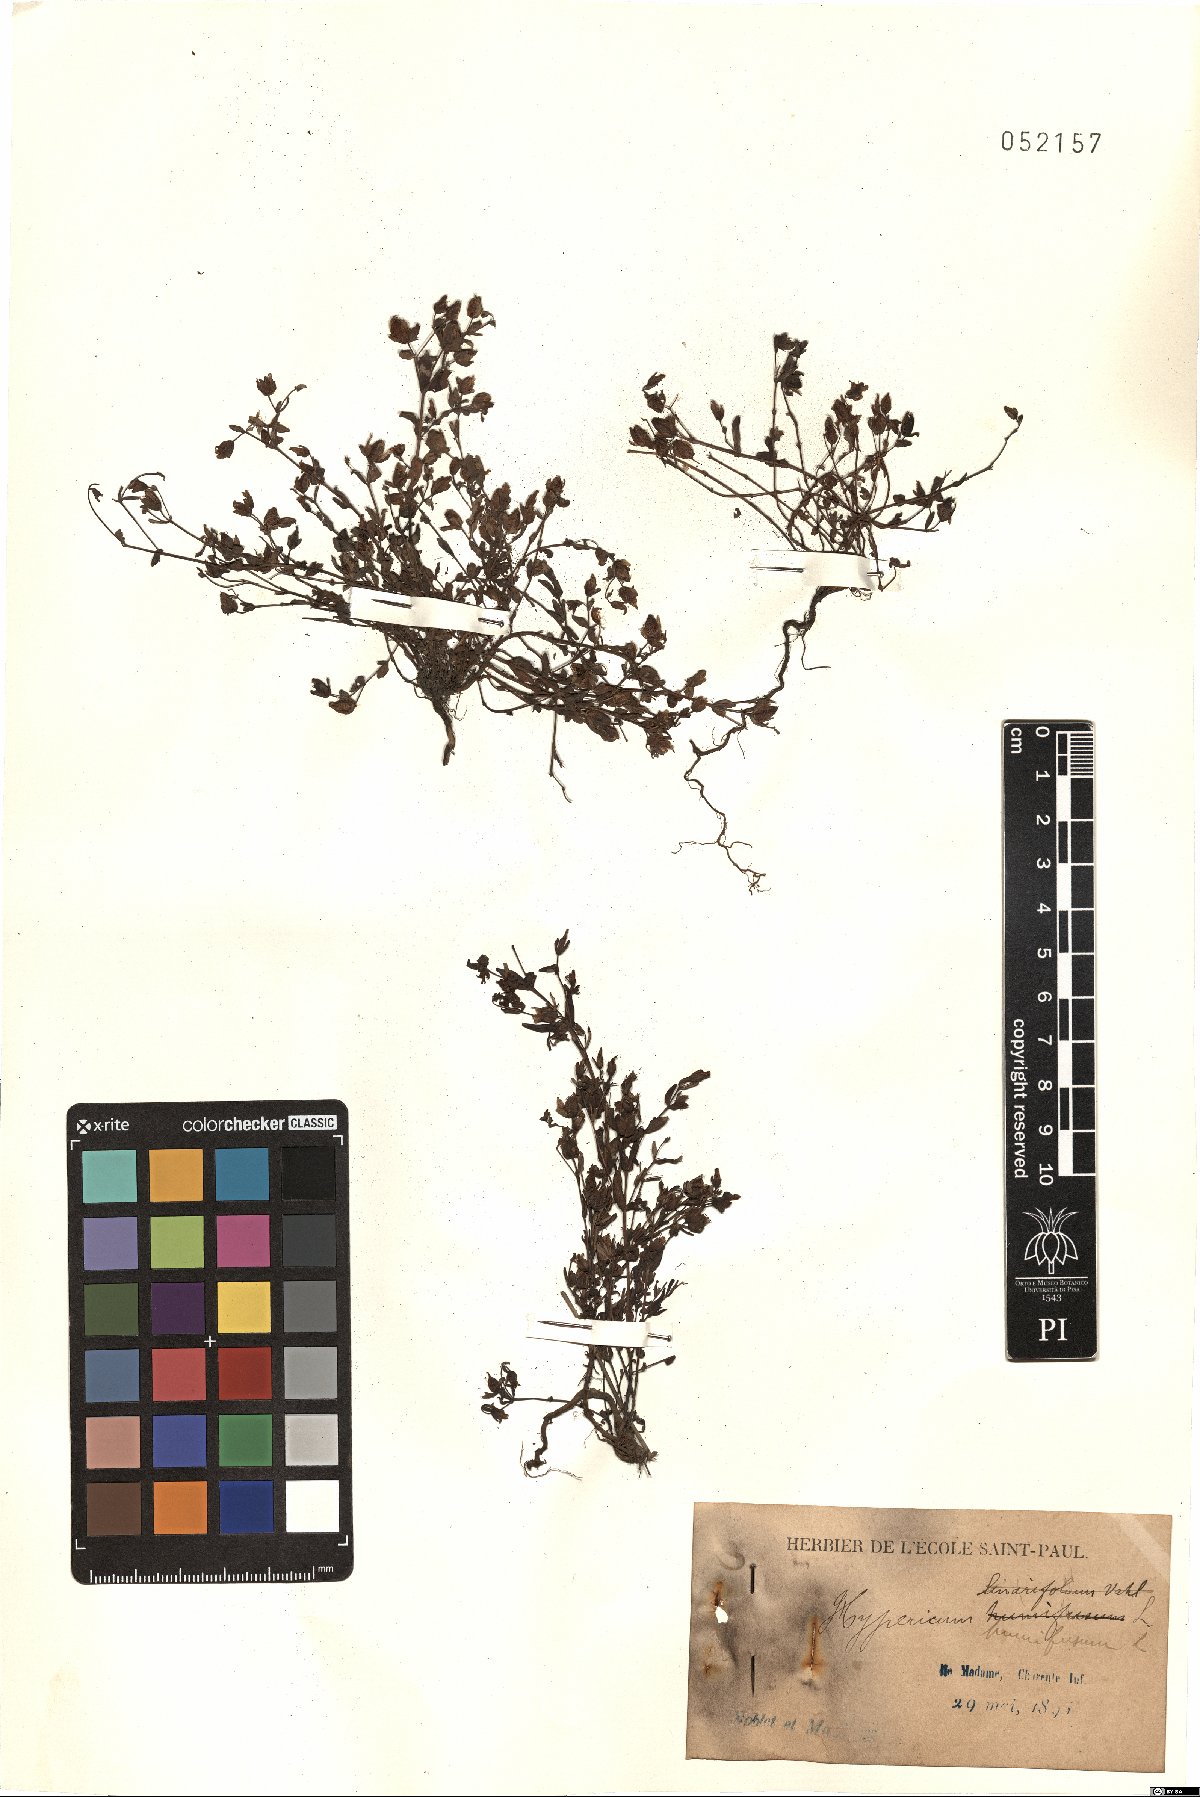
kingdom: Plantae
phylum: Tracheophyta
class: Magnoliopsida
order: Malpighiales
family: Hypericaceae
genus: Hypericum
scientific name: Hypericum humifusum
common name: Trailing st. john's-wort
